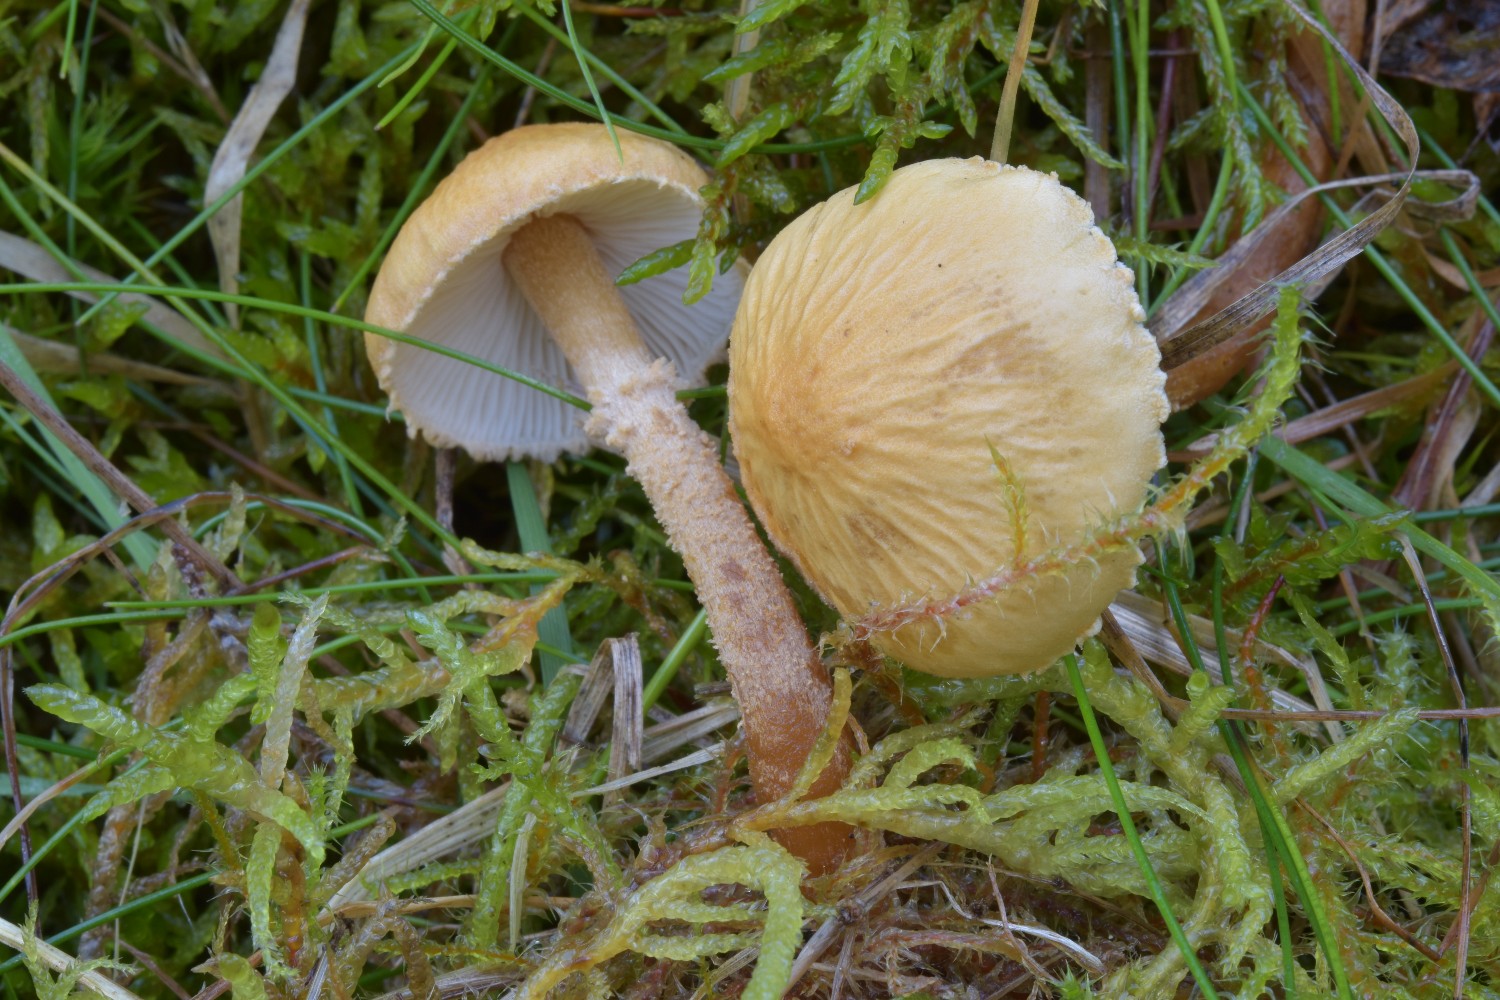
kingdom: Fungi
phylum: Basidiomycota
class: Agaricomycetes
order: Agaricales
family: Tricholomataceae
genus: Cystoderma
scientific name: Cystoderma amianthinum
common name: okkergul grynhat
